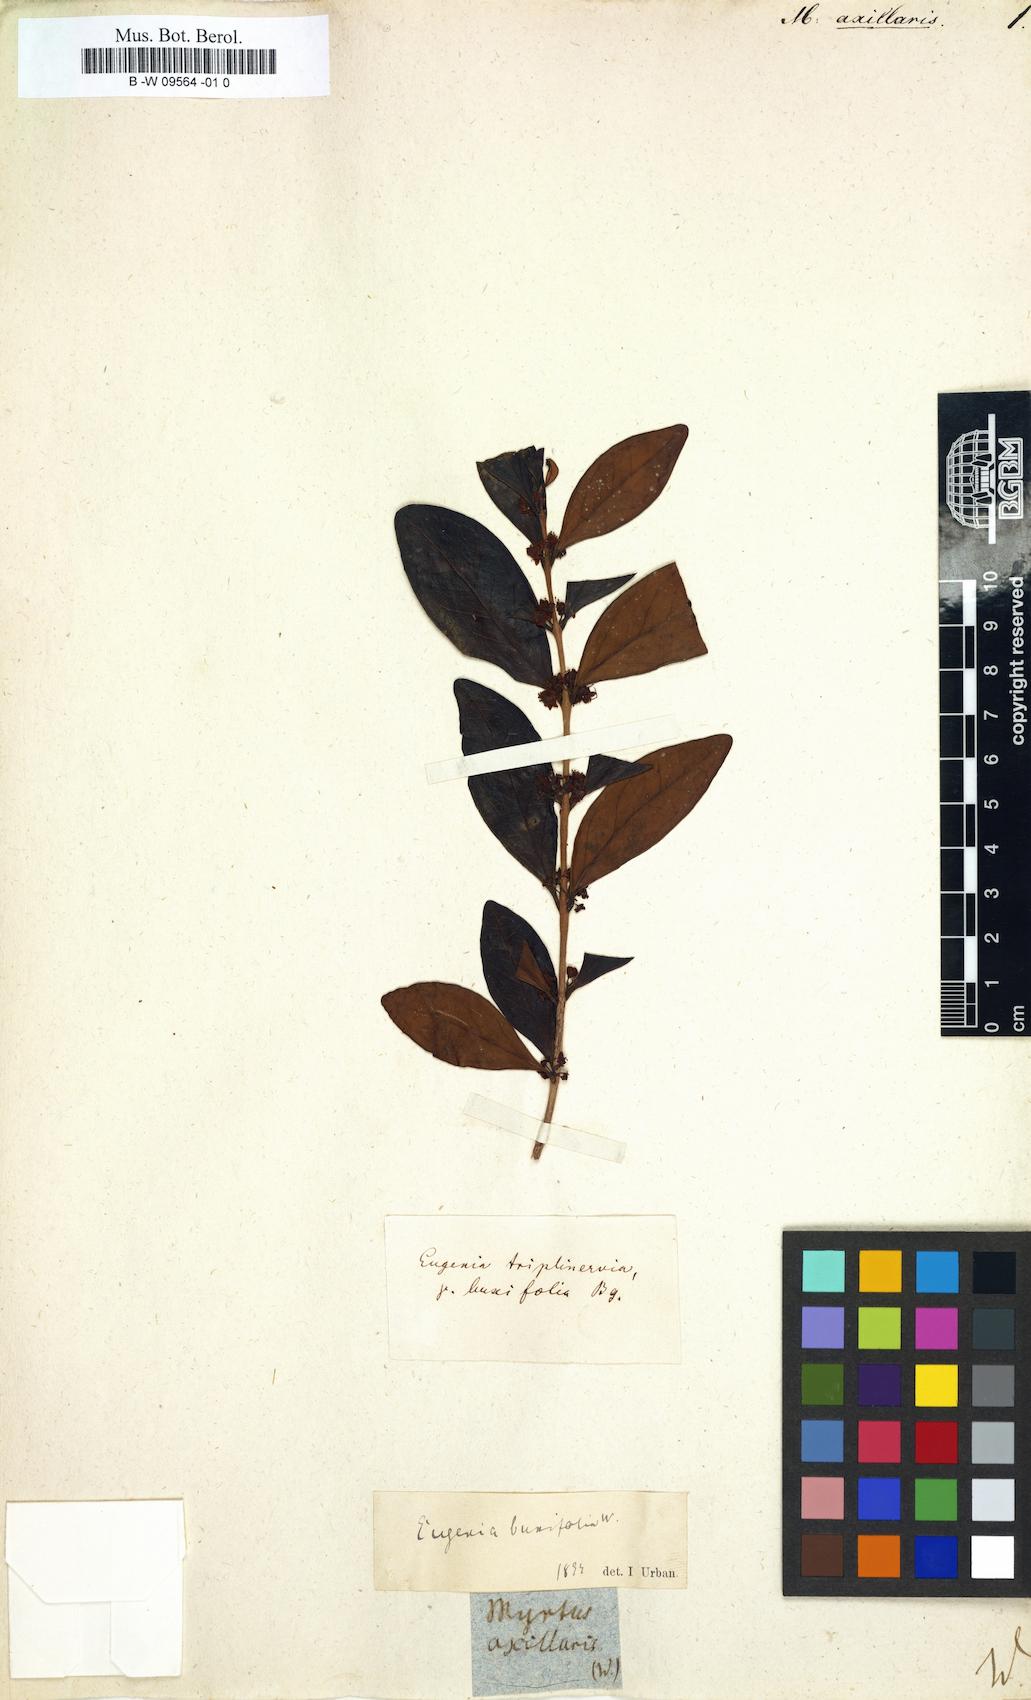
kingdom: Plantae
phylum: Tracheophyta
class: Magnoliopsida
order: Myrtales
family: Myrtaceae
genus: Eugenia
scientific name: Eugenia axillaris
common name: Choaky berry
